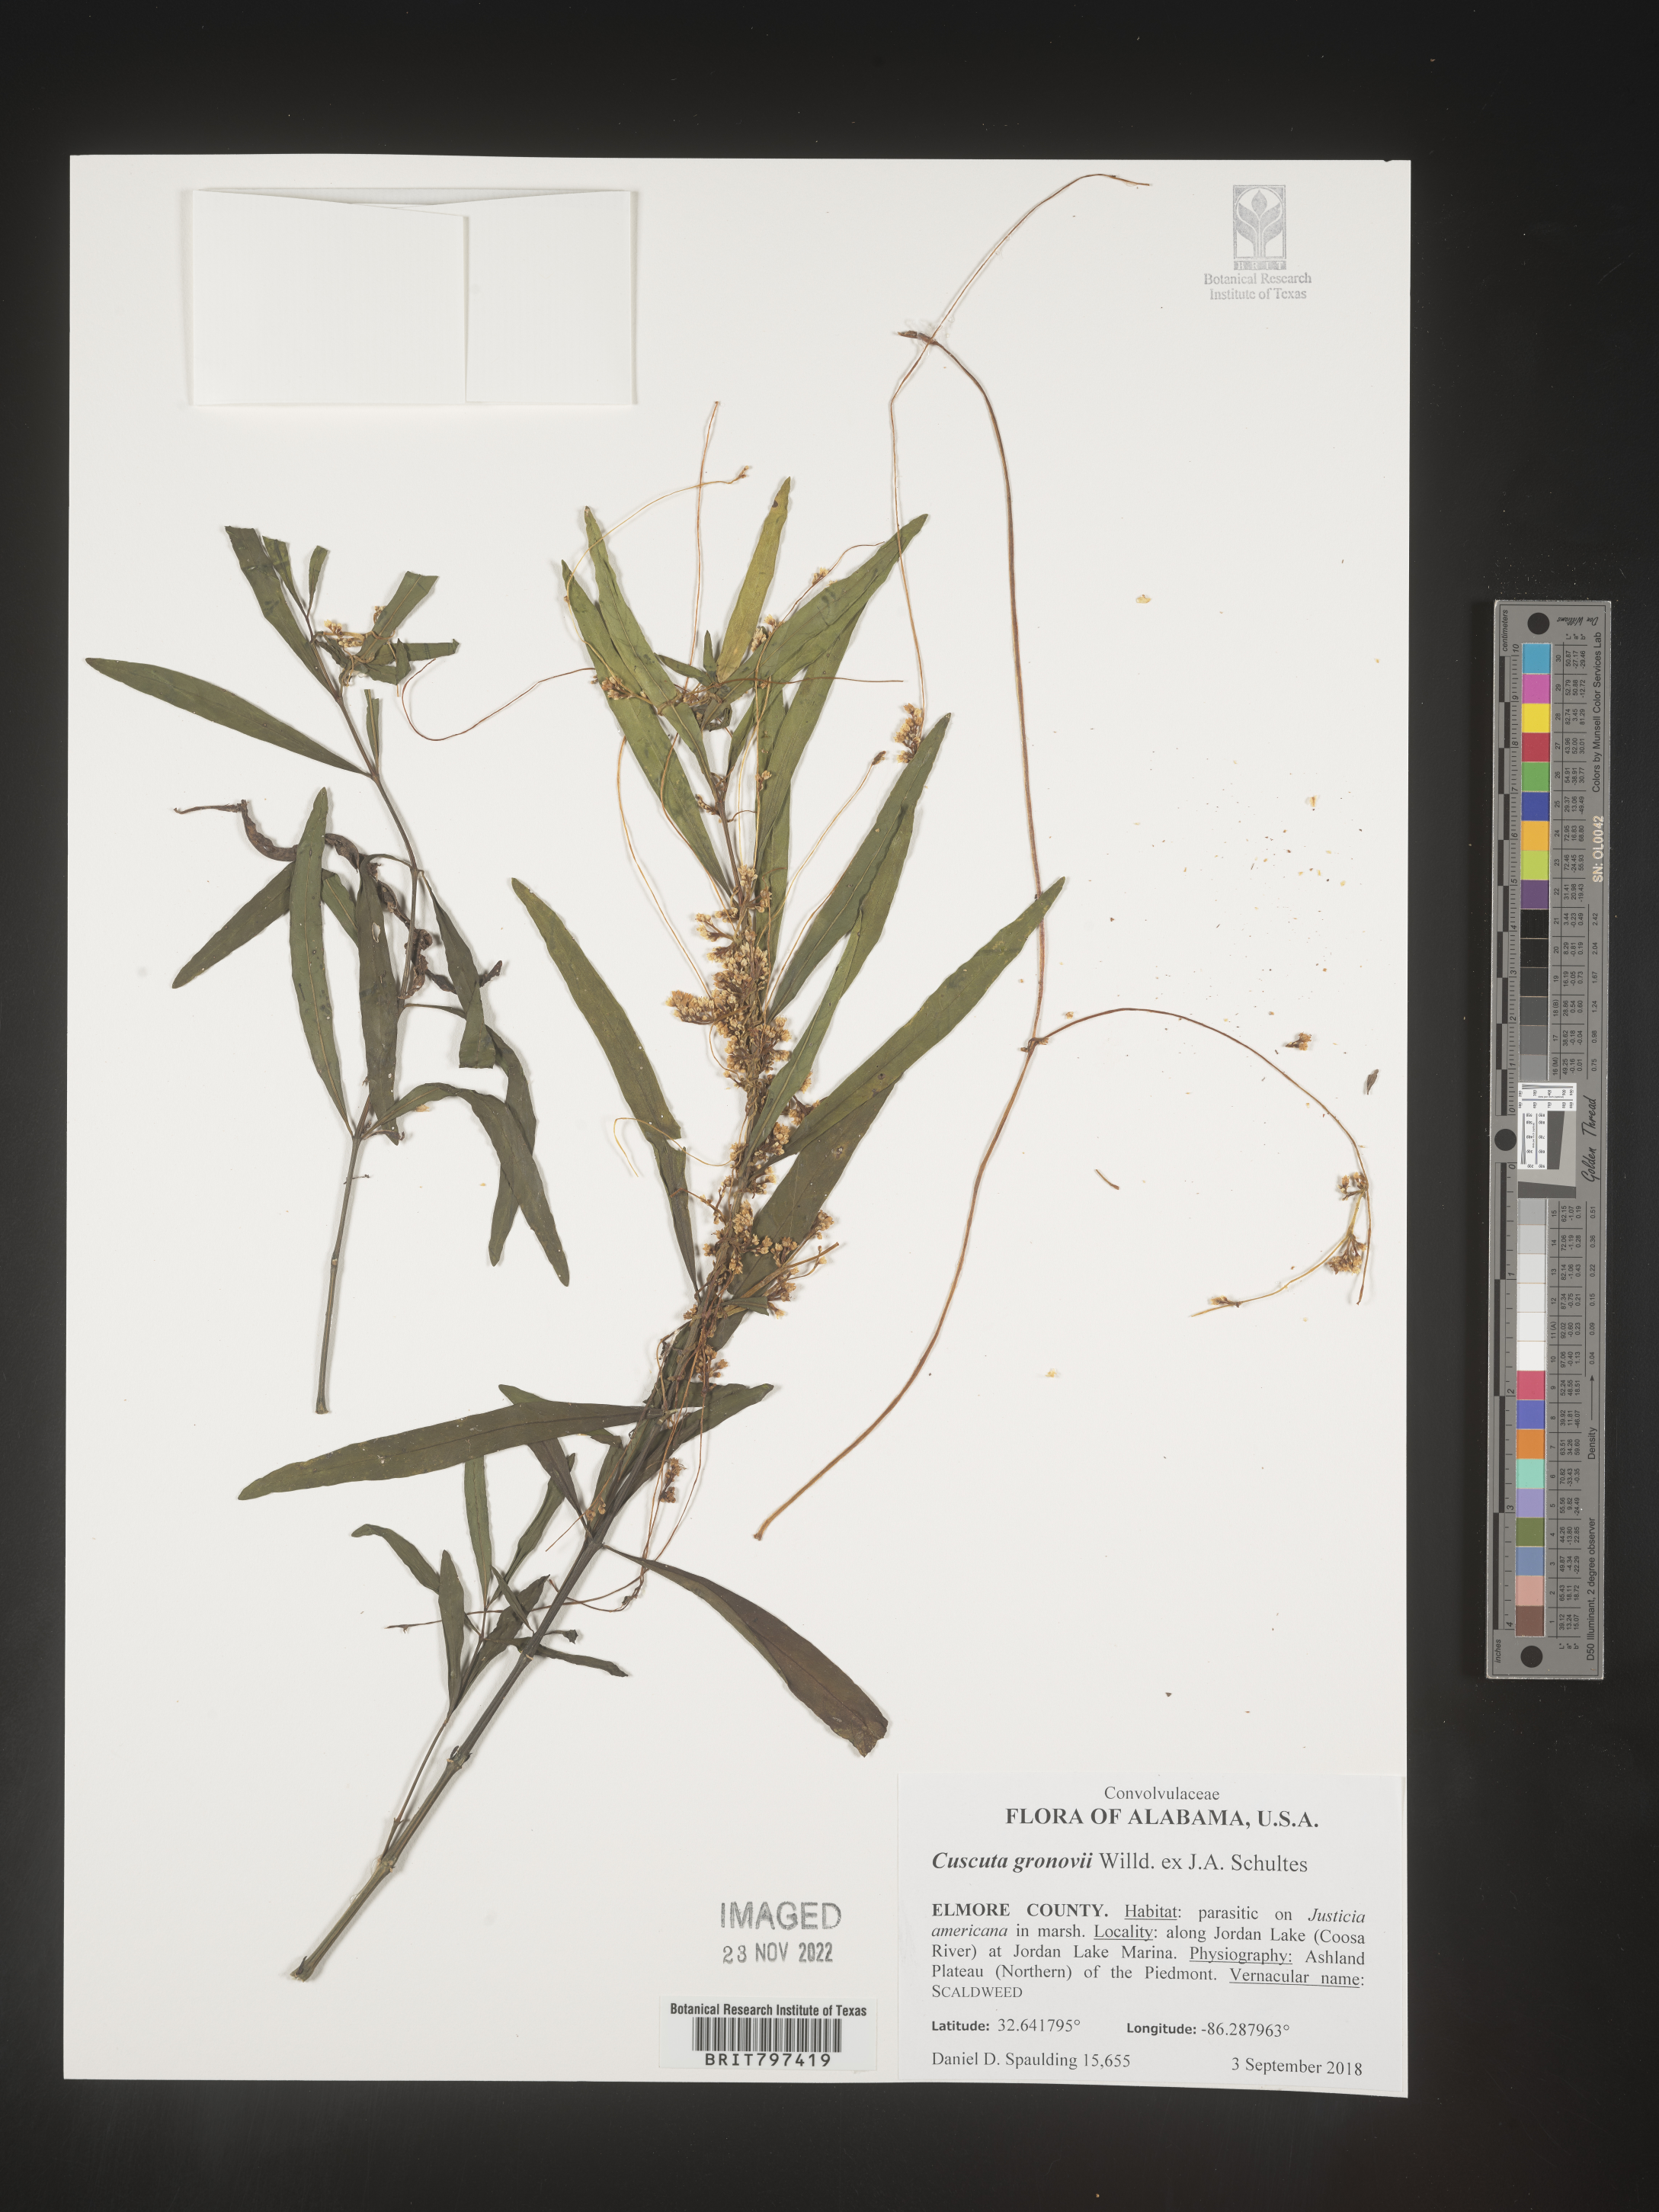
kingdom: Plantae
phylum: Tracheophyta
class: Magnoliopsida
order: Solanales
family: Convolvulaceae
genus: Cuscuta
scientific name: Cuscuta gronovii
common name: Common dodder
